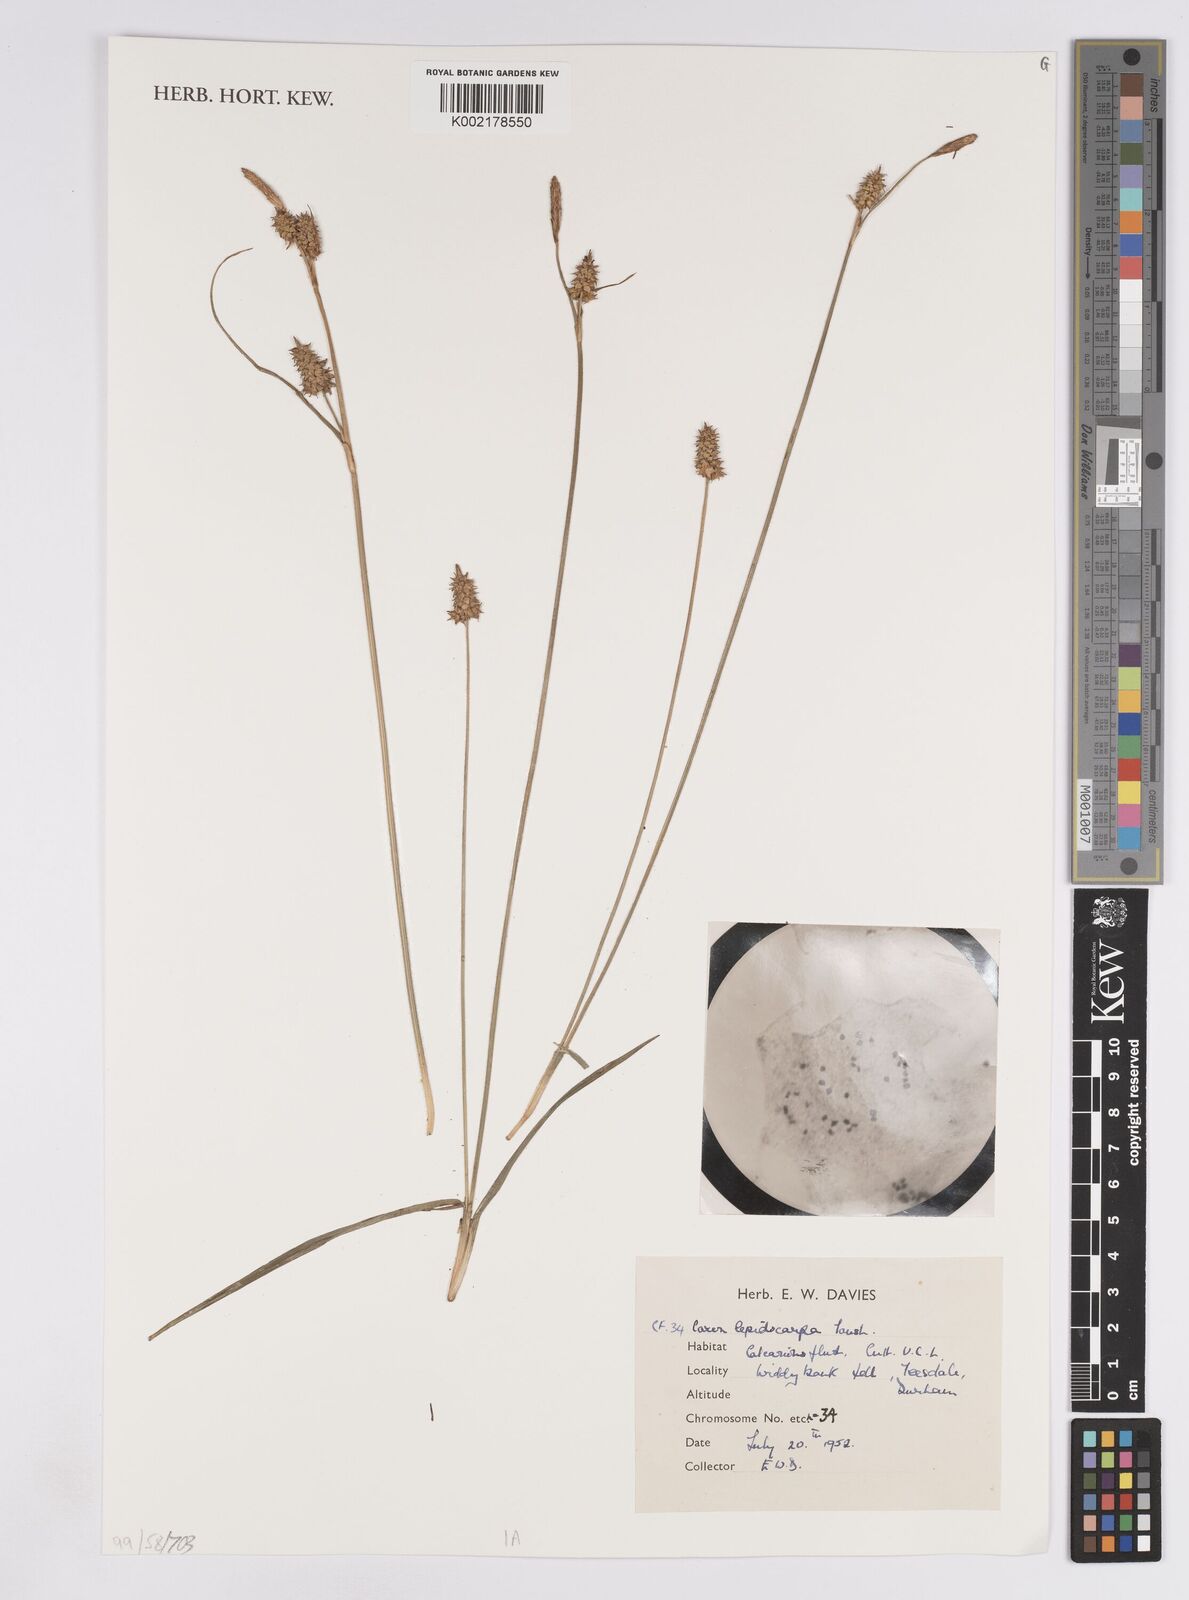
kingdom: Plantae
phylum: Tracheophyta
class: Liliopsida
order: Poales
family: Cyperaceae
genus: Carex
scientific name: Carex lepidocarpa
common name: Long-stalked yellow-sedge
